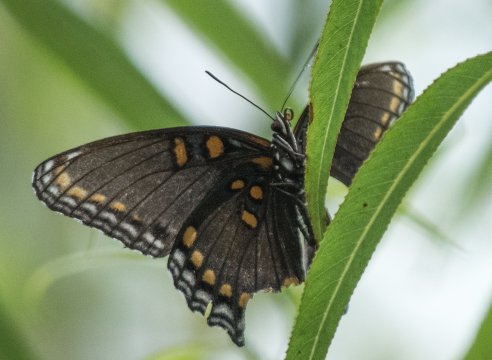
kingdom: Animalia
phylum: Arthropoda
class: Insecta
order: Lepidoptera
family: Nymphalidae
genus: Limenitis
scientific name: Limenitis arthemis
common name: Red-spotted Admiral
